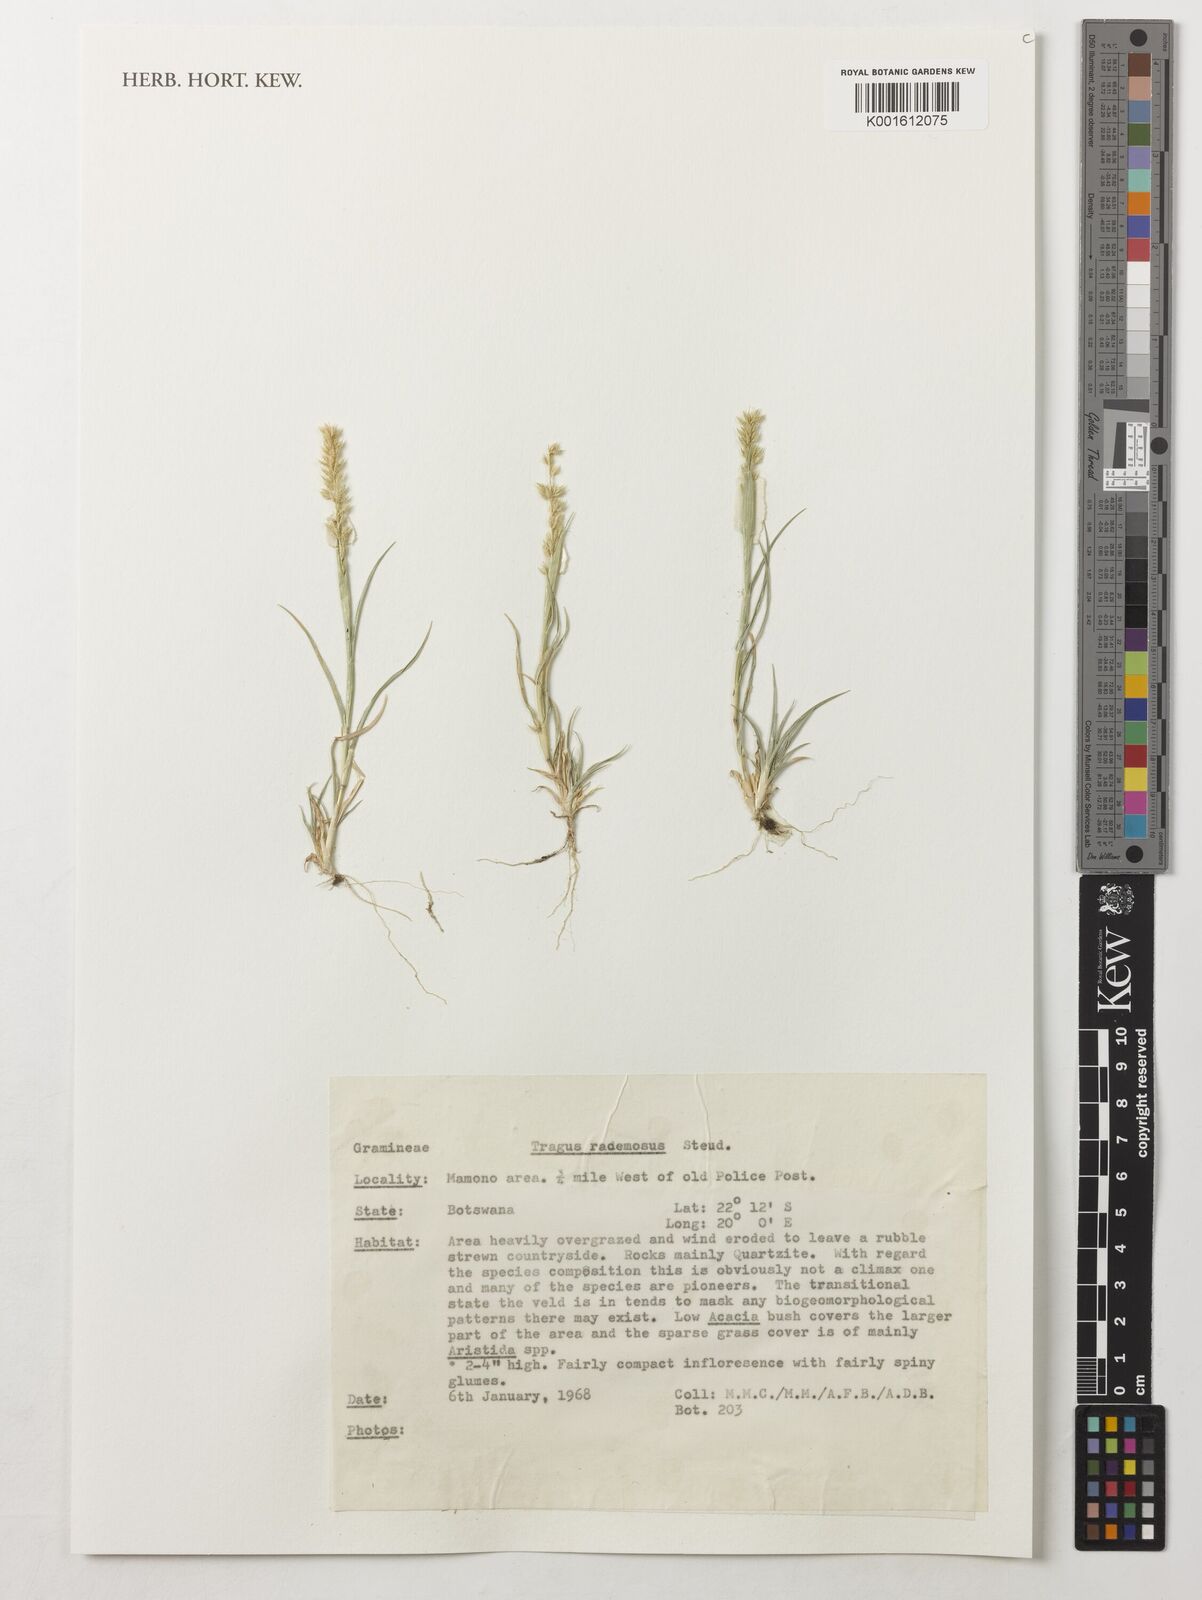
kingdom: Plantae
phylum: Tracheophyta
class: Liliopsida
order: Poales
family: Poaceae
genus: Tragus
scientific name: Tragus racemosus
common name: European bur-grass
